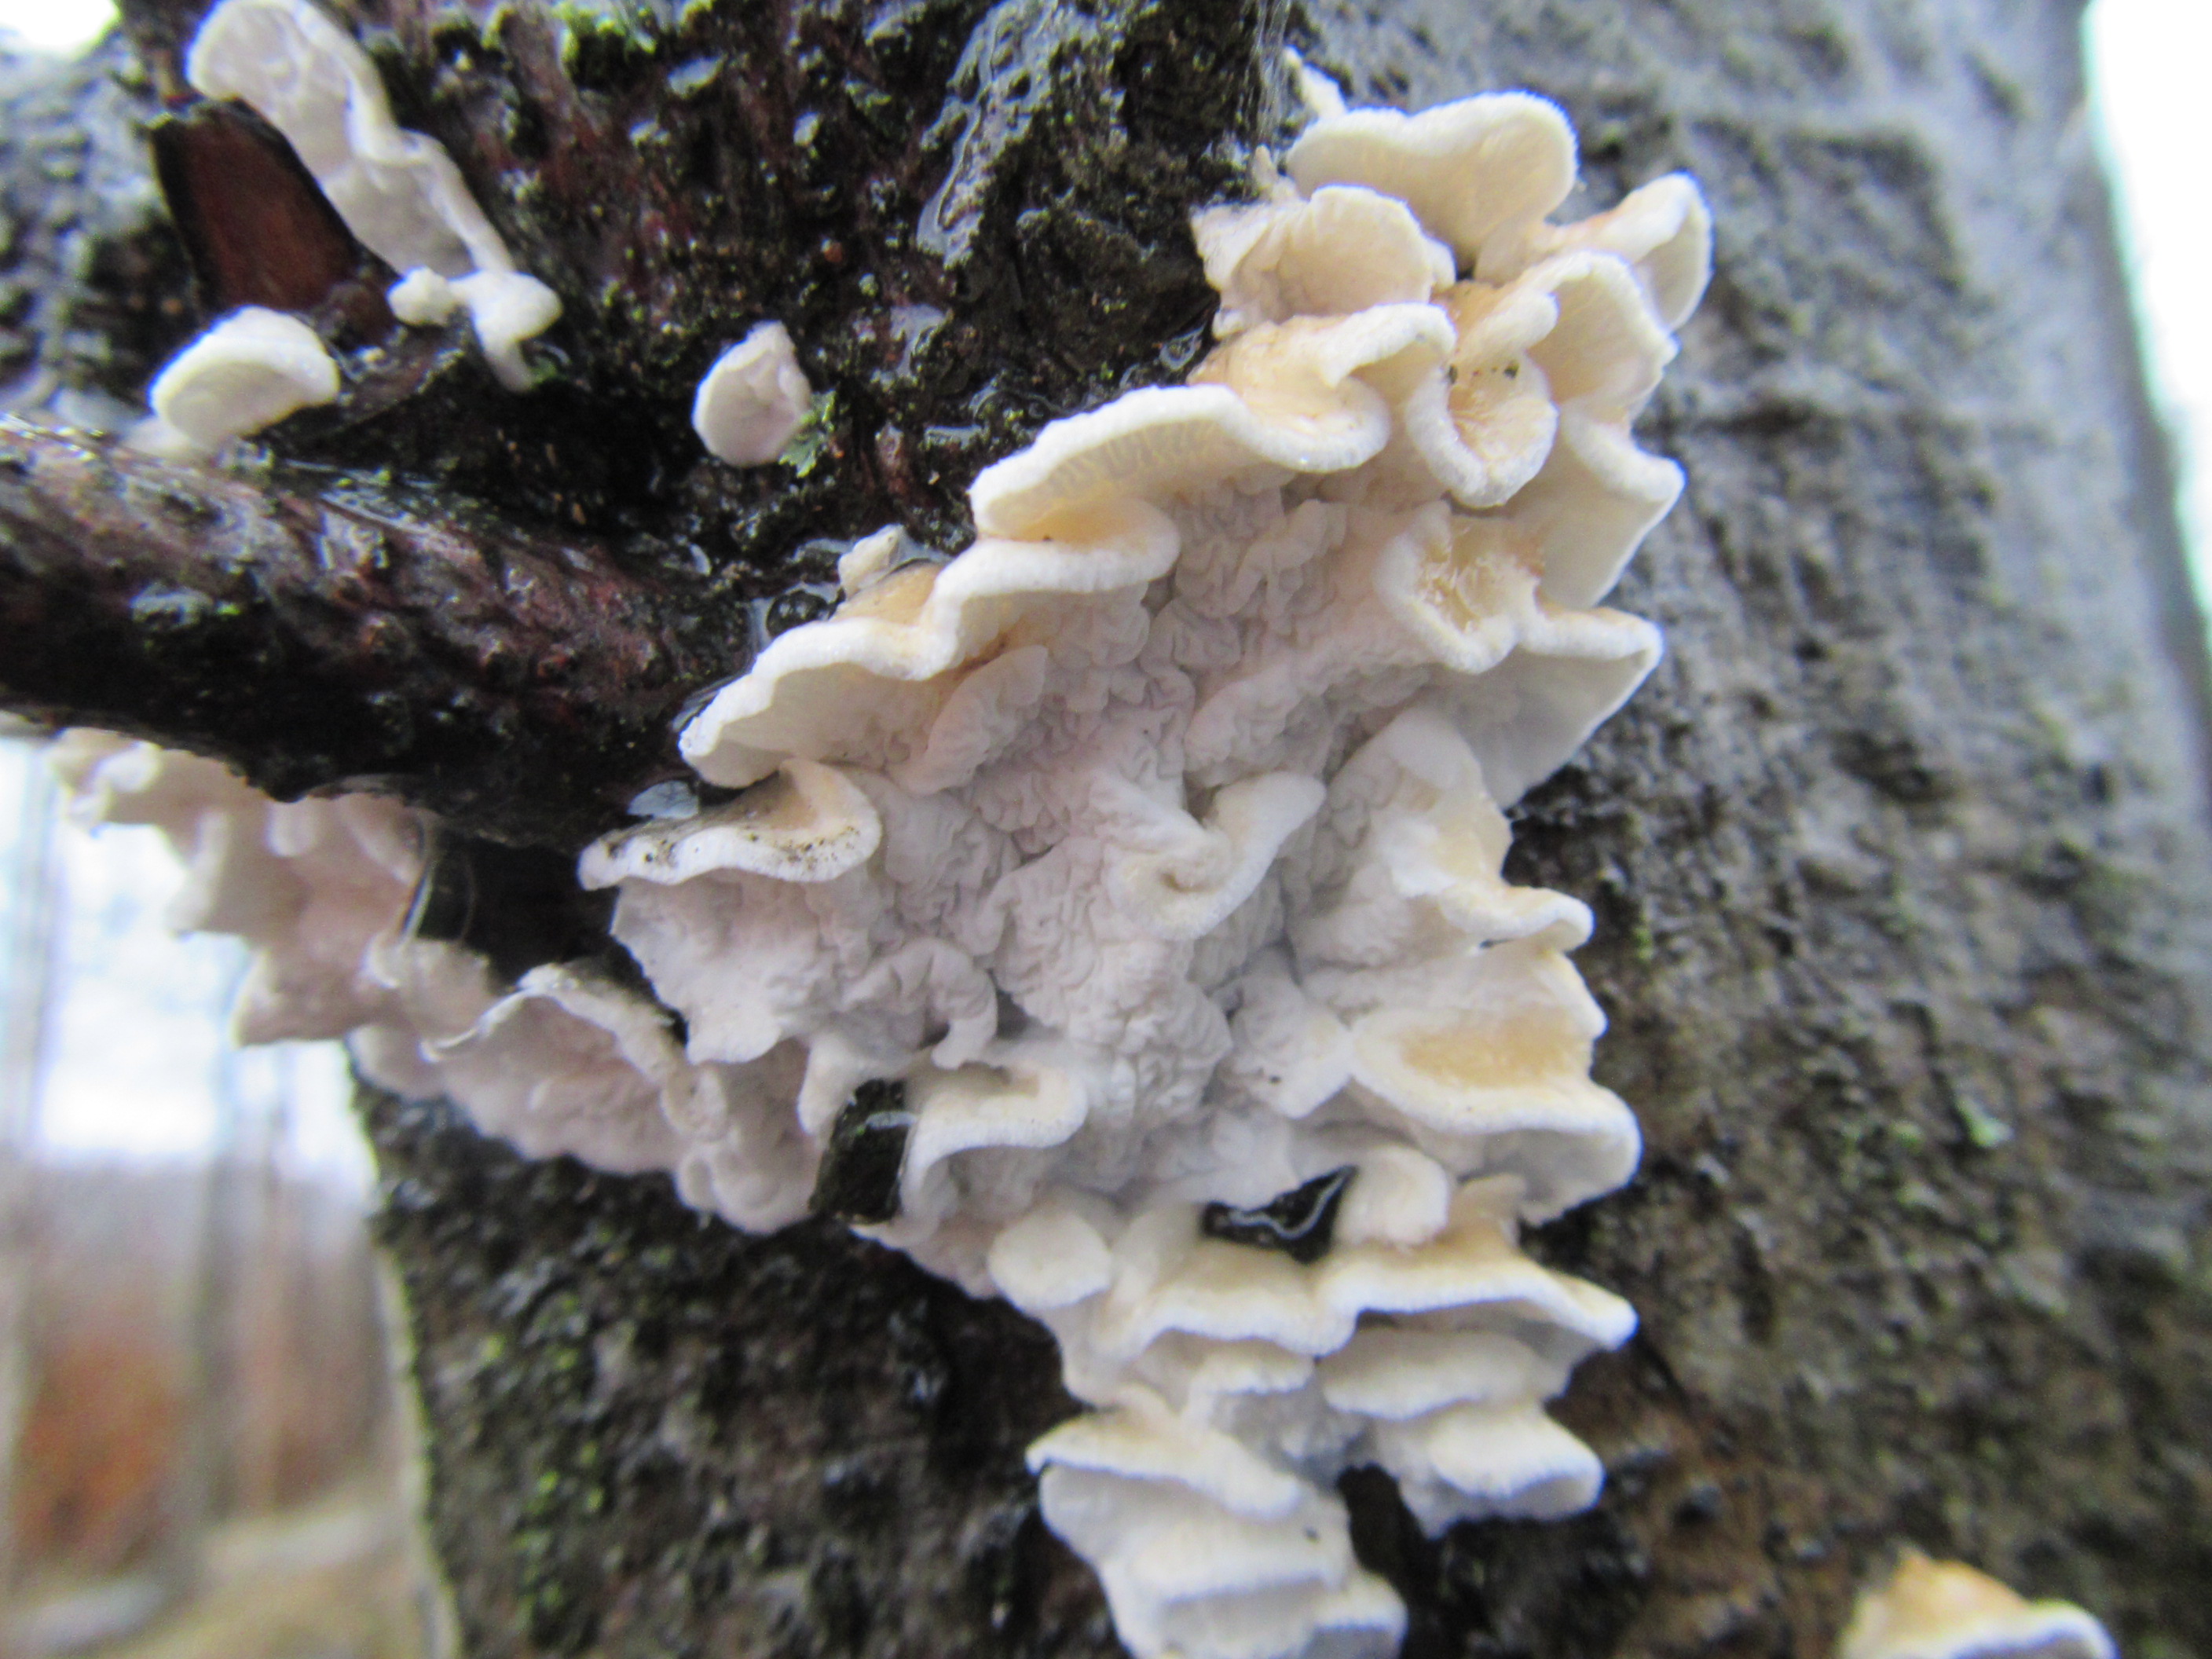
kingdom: Fungi
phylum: Basidiomycota
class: Agaricomycetes
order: Agaricales
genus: Plicatura
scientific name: Plicatura nivea
